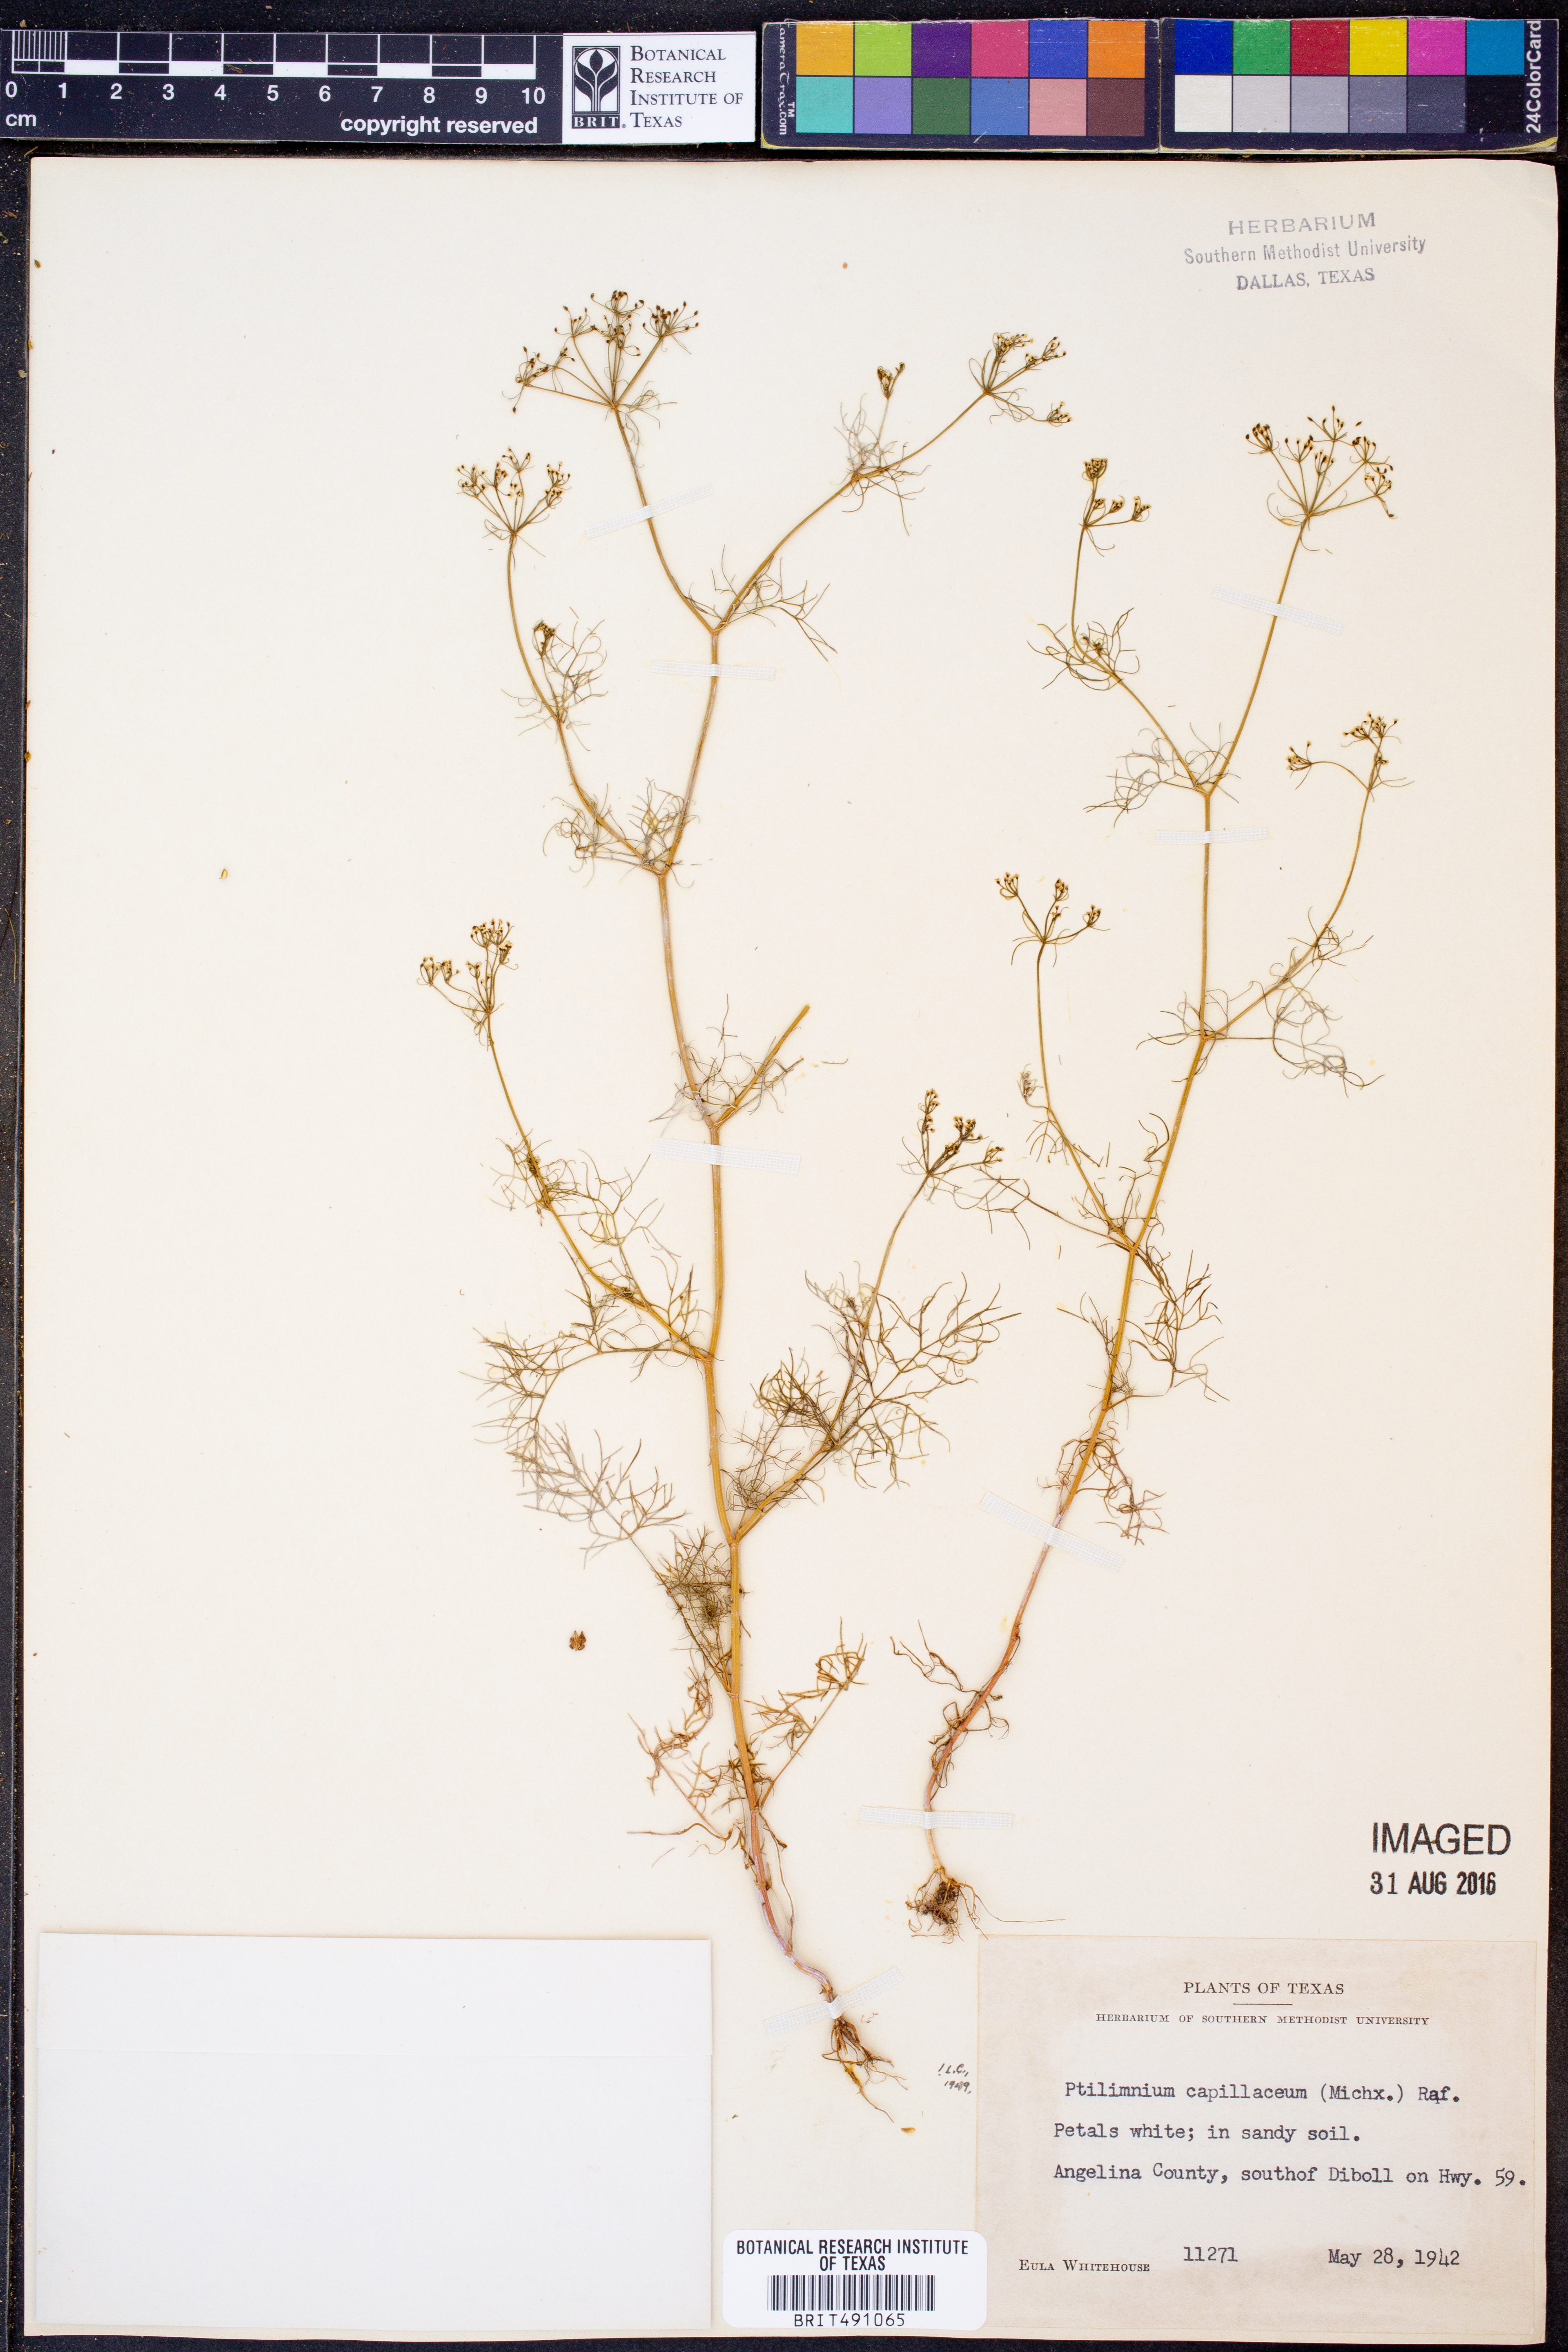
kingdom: Plantae
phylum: Tracheophyta
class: Magnoliopsida
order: Apiales
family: Apiaceae
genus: Ptilimnium
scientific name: Ptilimnium capillaceum
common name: Herbwilliam
